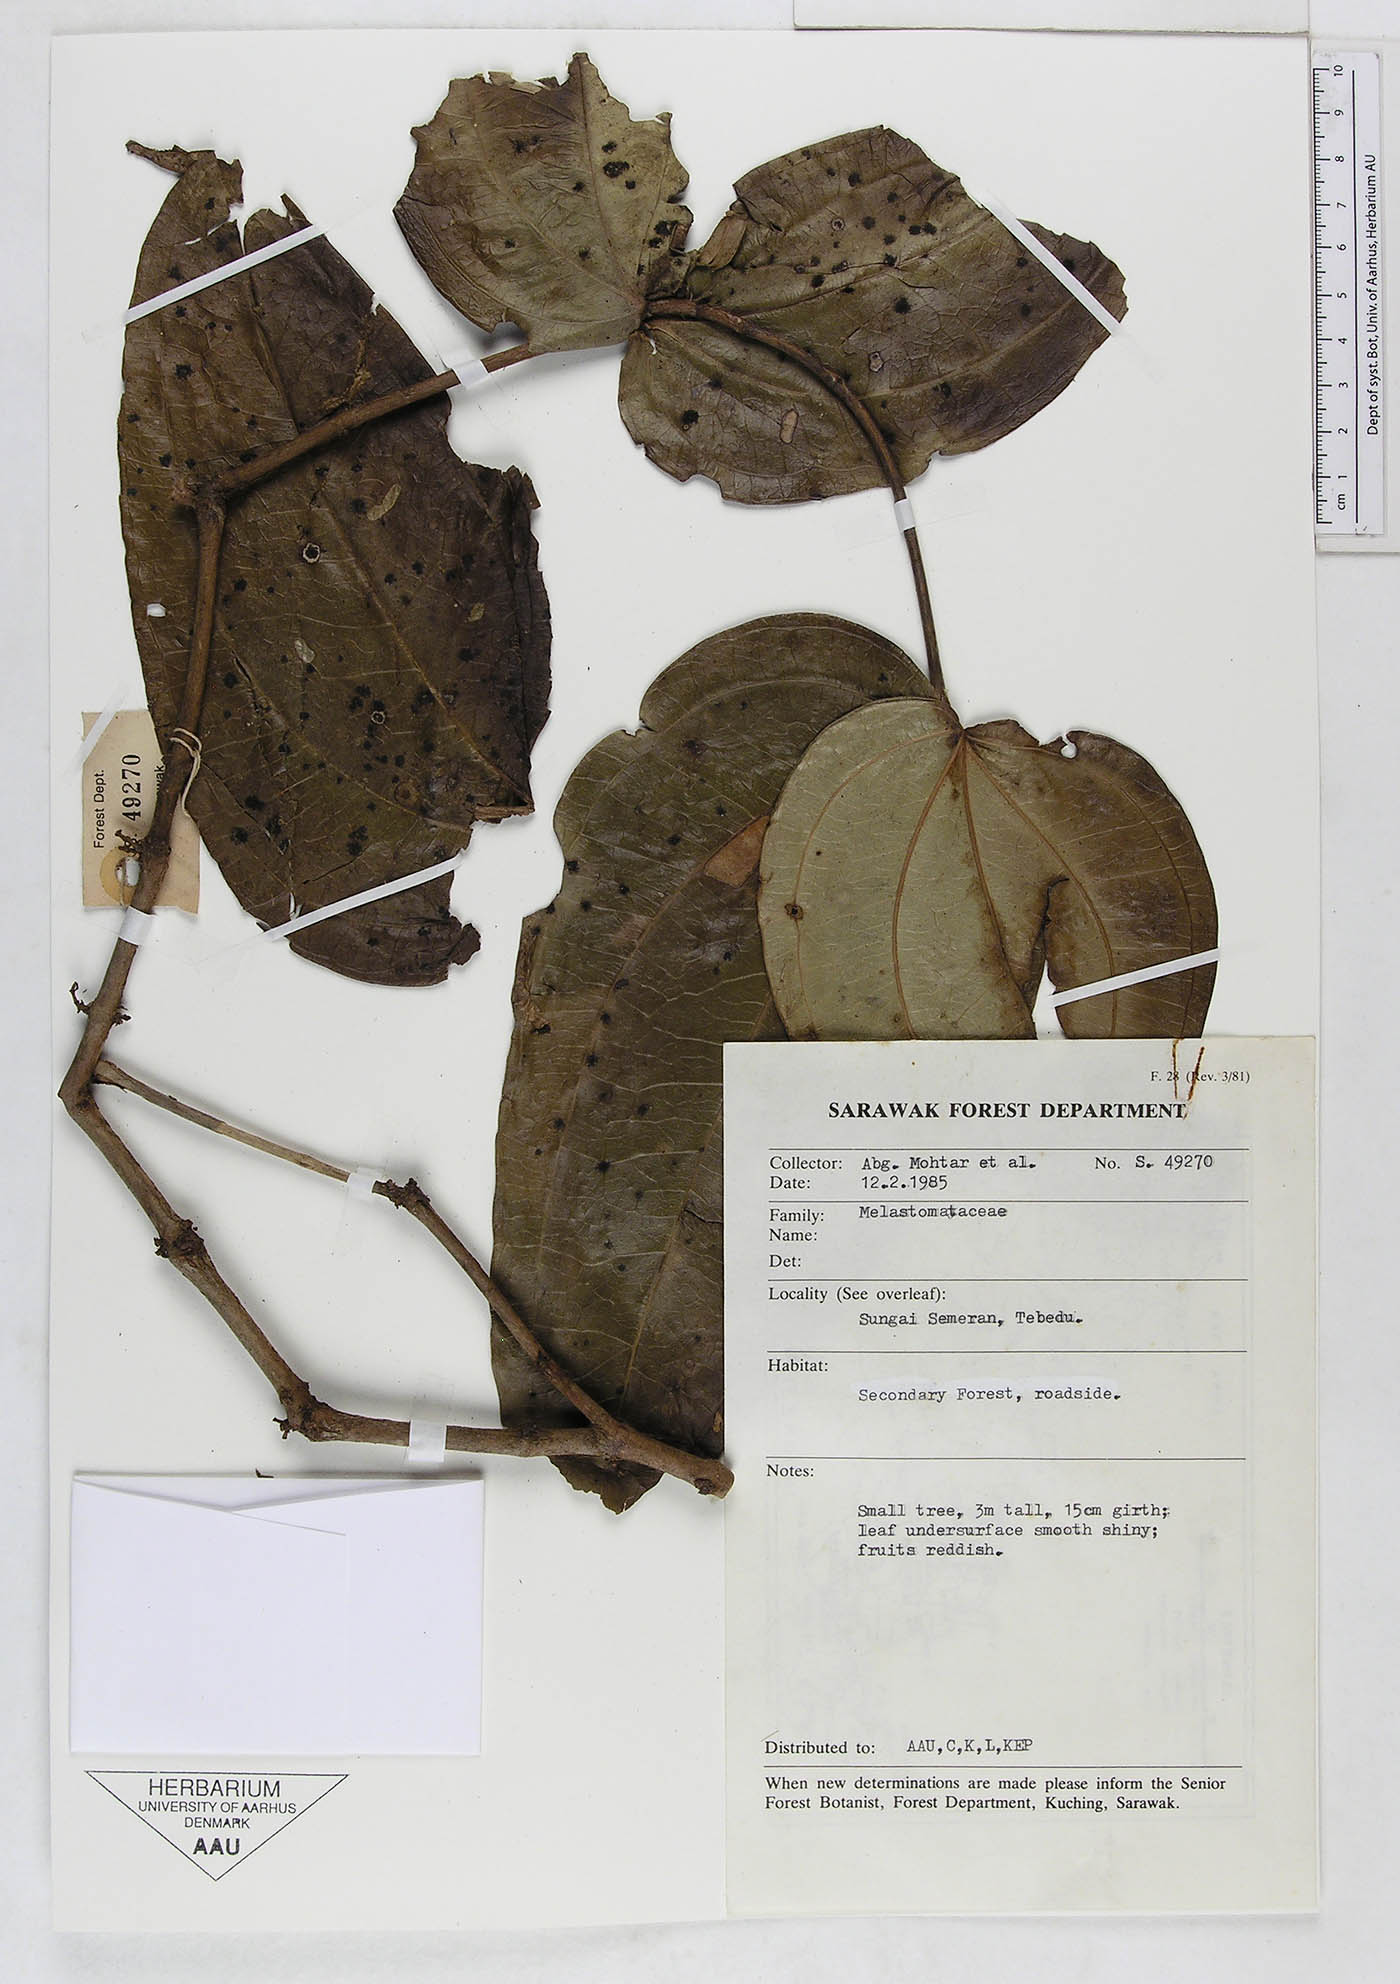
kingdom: Plantae
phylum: Tracheophyta
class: Magnoliopsida
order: Myrtales
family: Melastomataceae
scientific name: Melastomataceae
